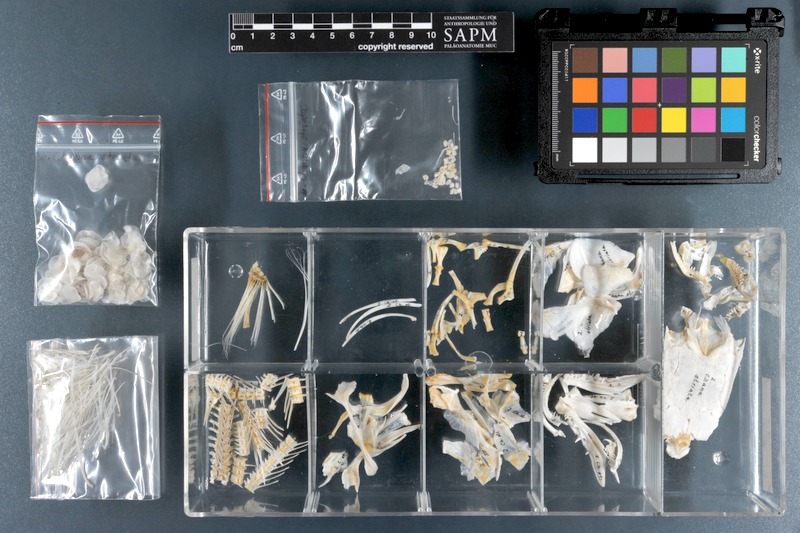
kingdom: Animalia
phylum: Chordata
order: Perciformes
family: Channidae
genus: Channa
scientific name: Channa striata
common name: Striped snakehead
